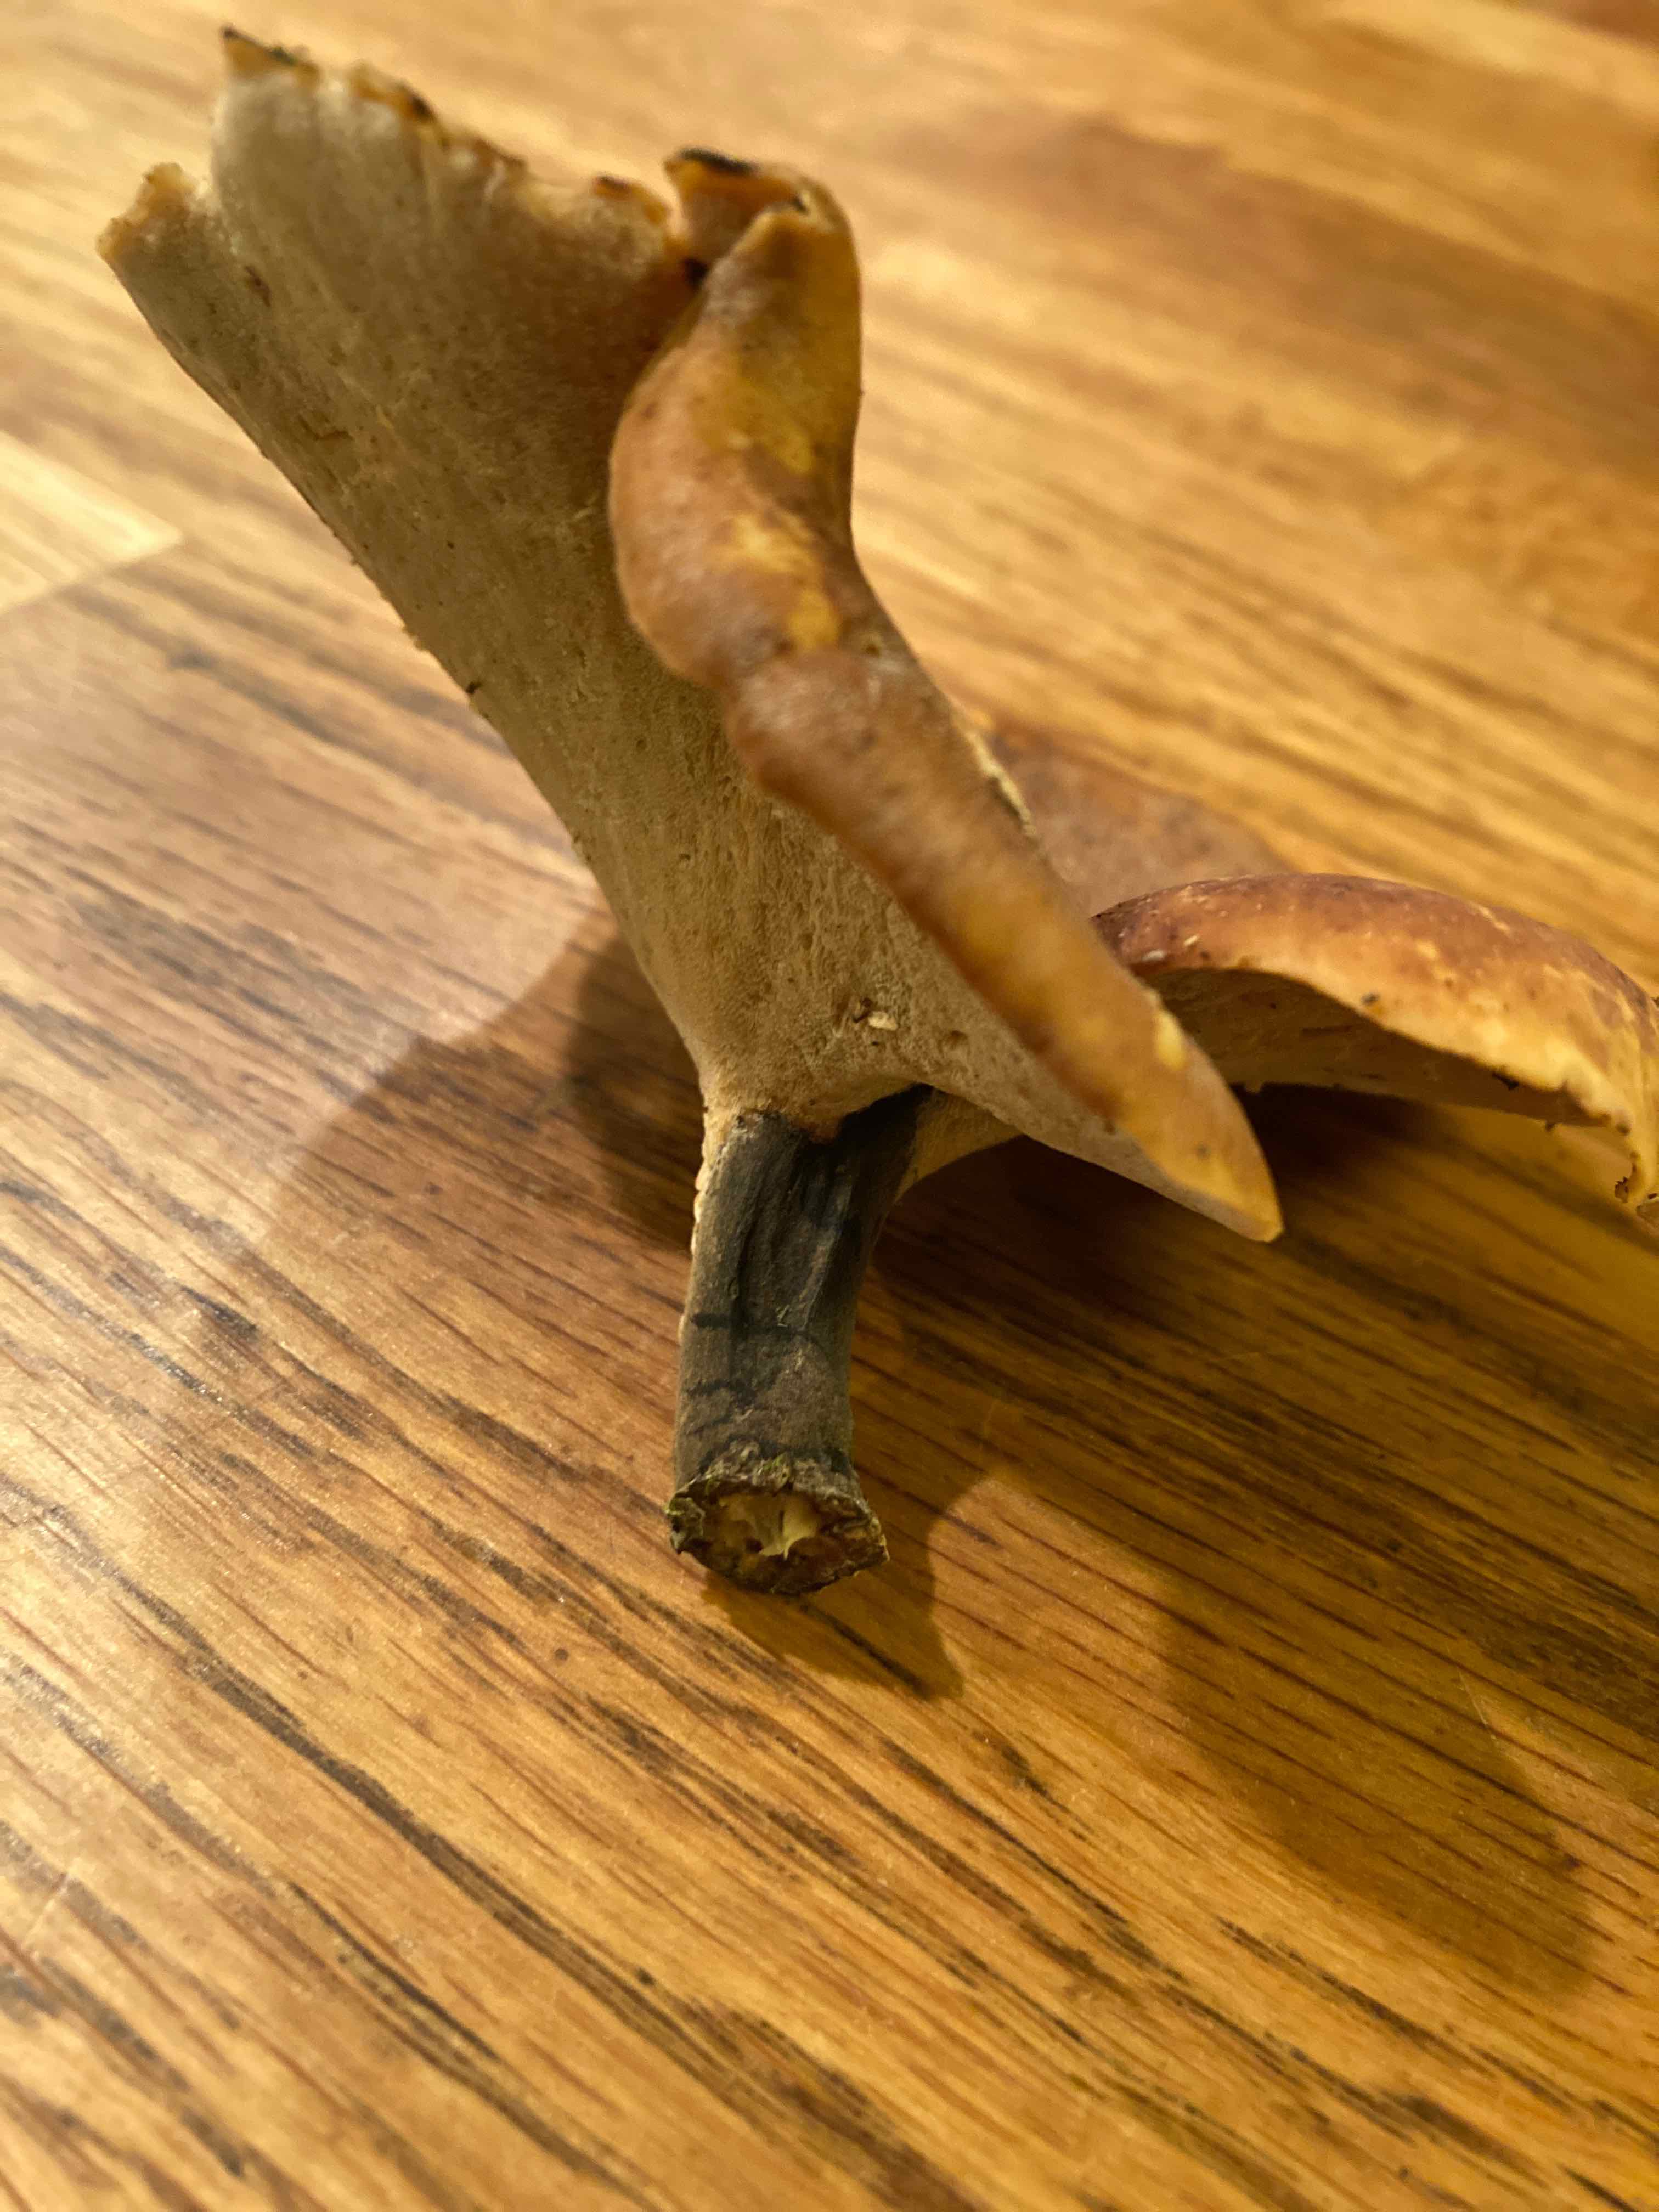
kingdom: Fungi
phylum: Basidiomycota
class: Agaricomycetes
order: Polyporales
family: Polyporaceae
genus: Cerioporus
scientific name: Cerioporus varius
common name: foranderlig stilkporesvamp
